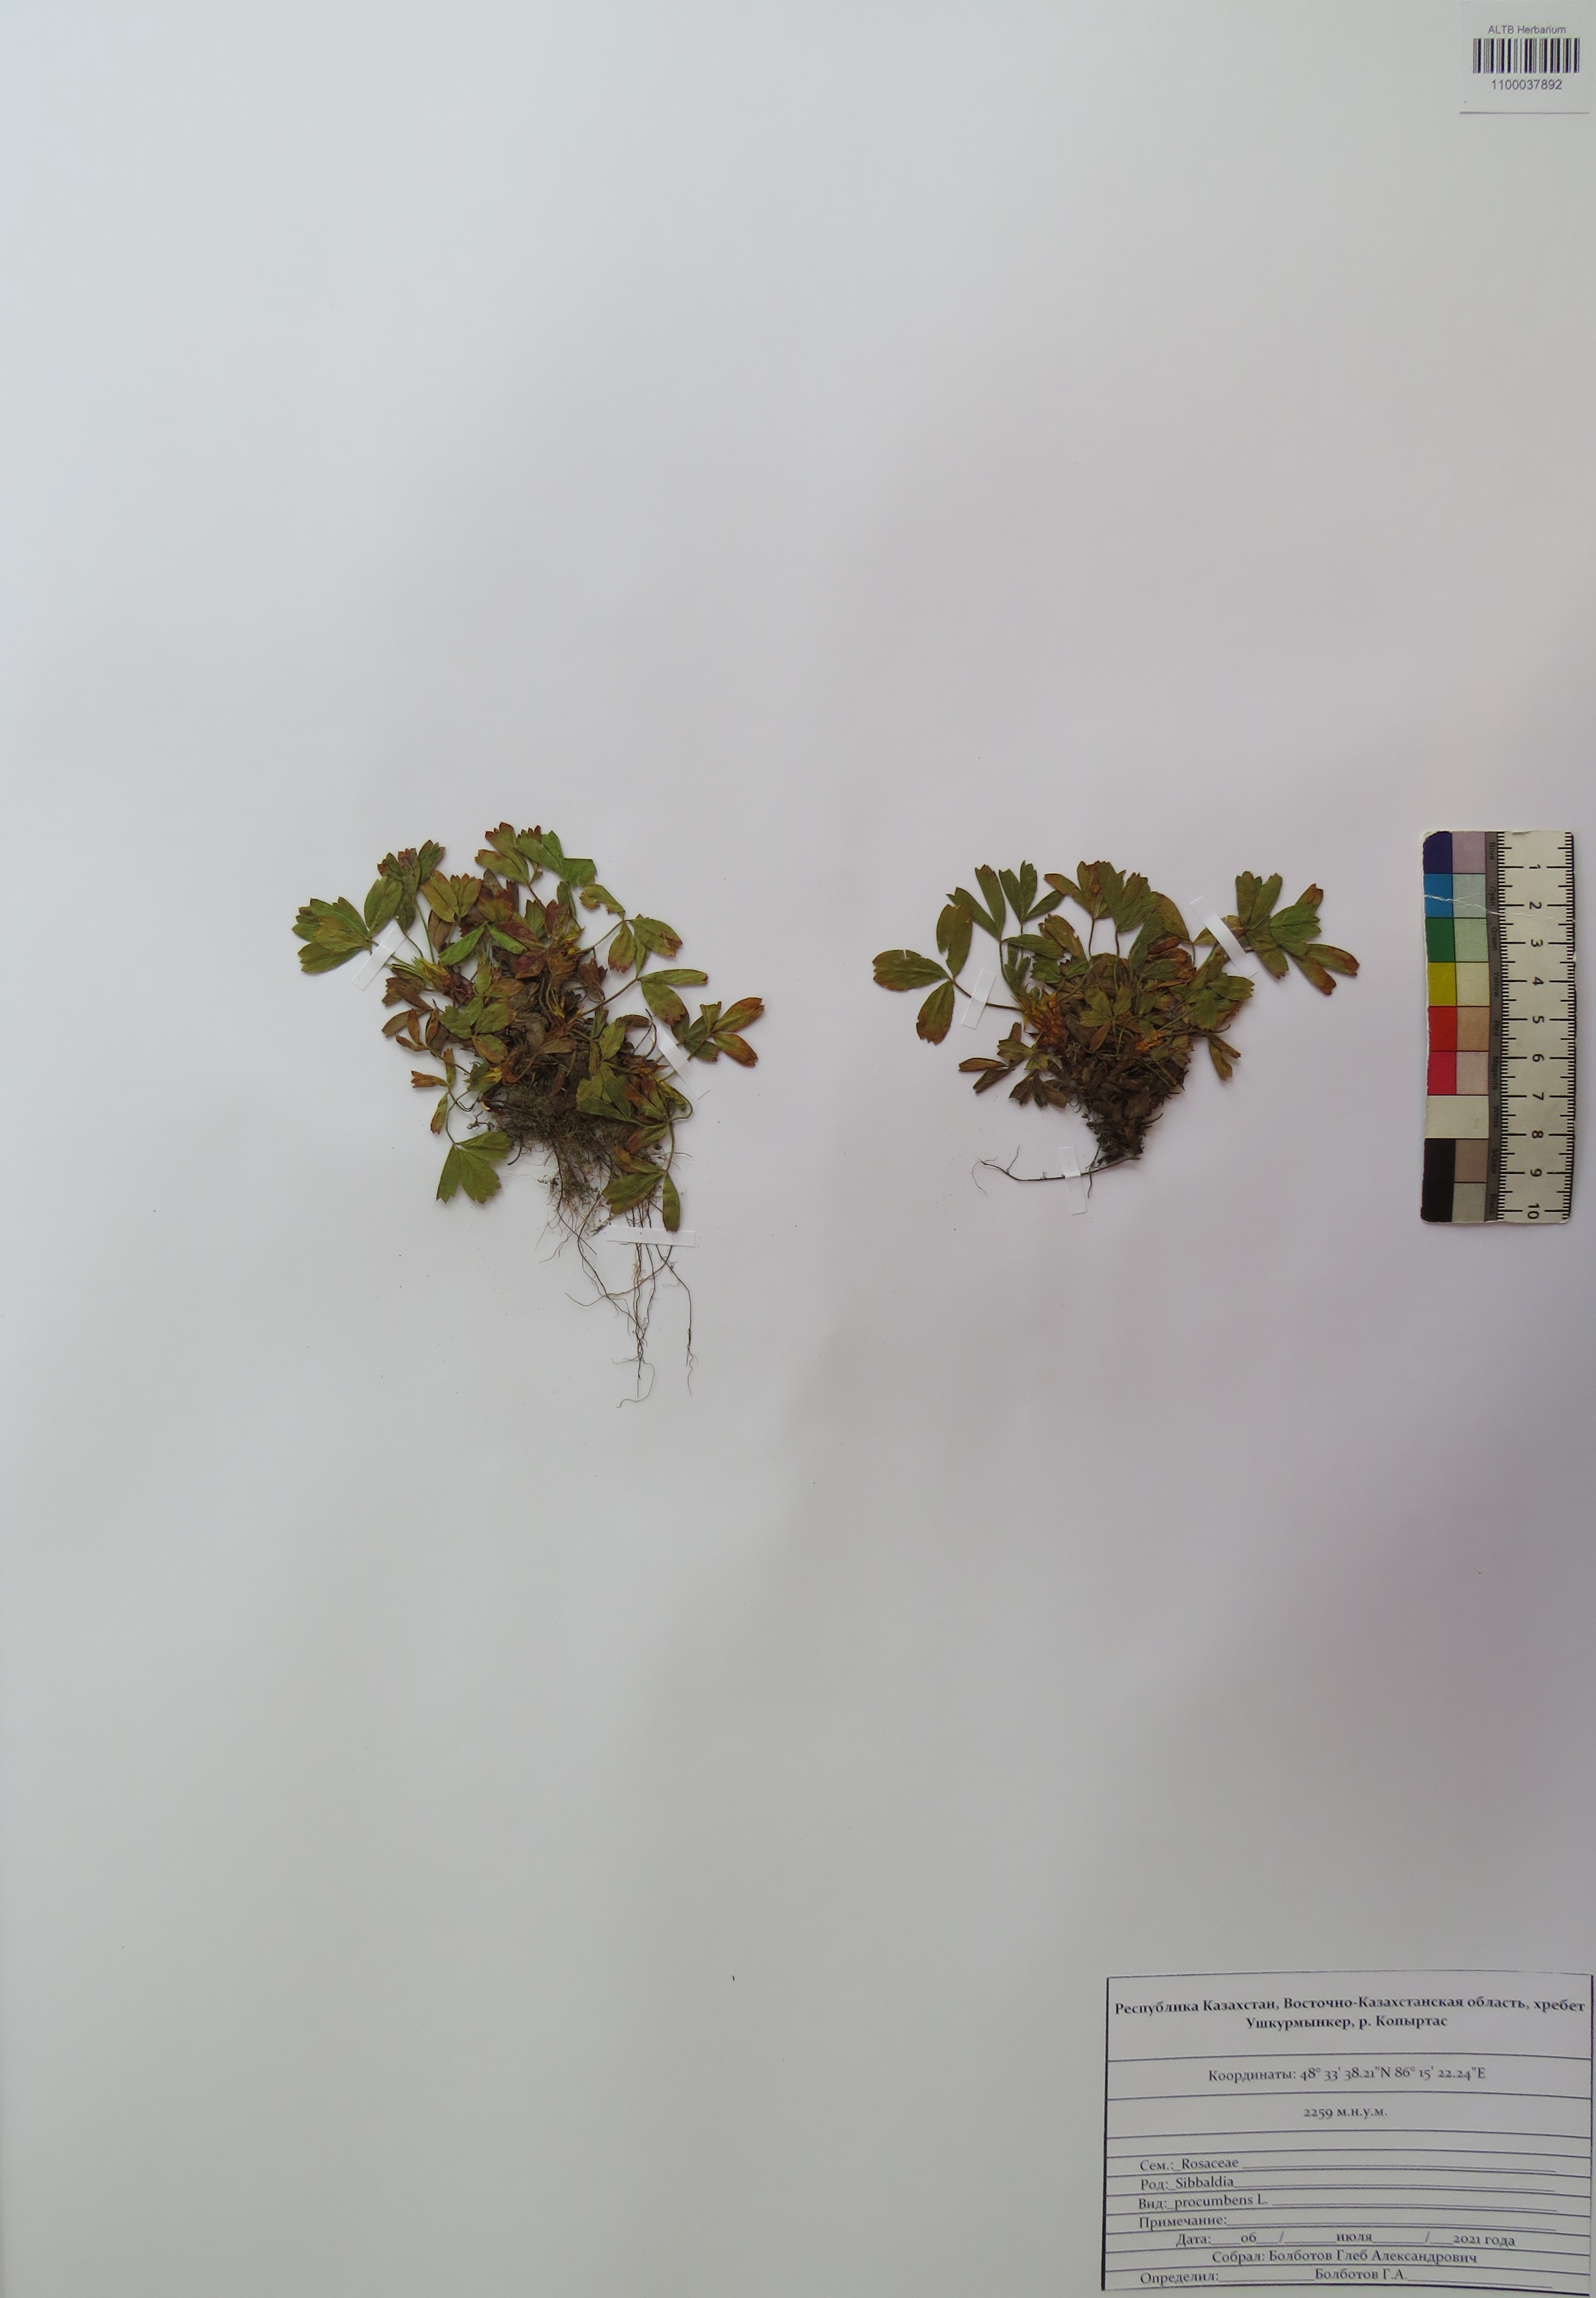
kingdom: Plantae
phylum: Tracheophyta
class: Magnoliopsida
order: Rosales
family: Rosaceae
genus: Sibbaldia
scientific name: Sibbaldia procumbens
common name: Creeping sibbaldia
